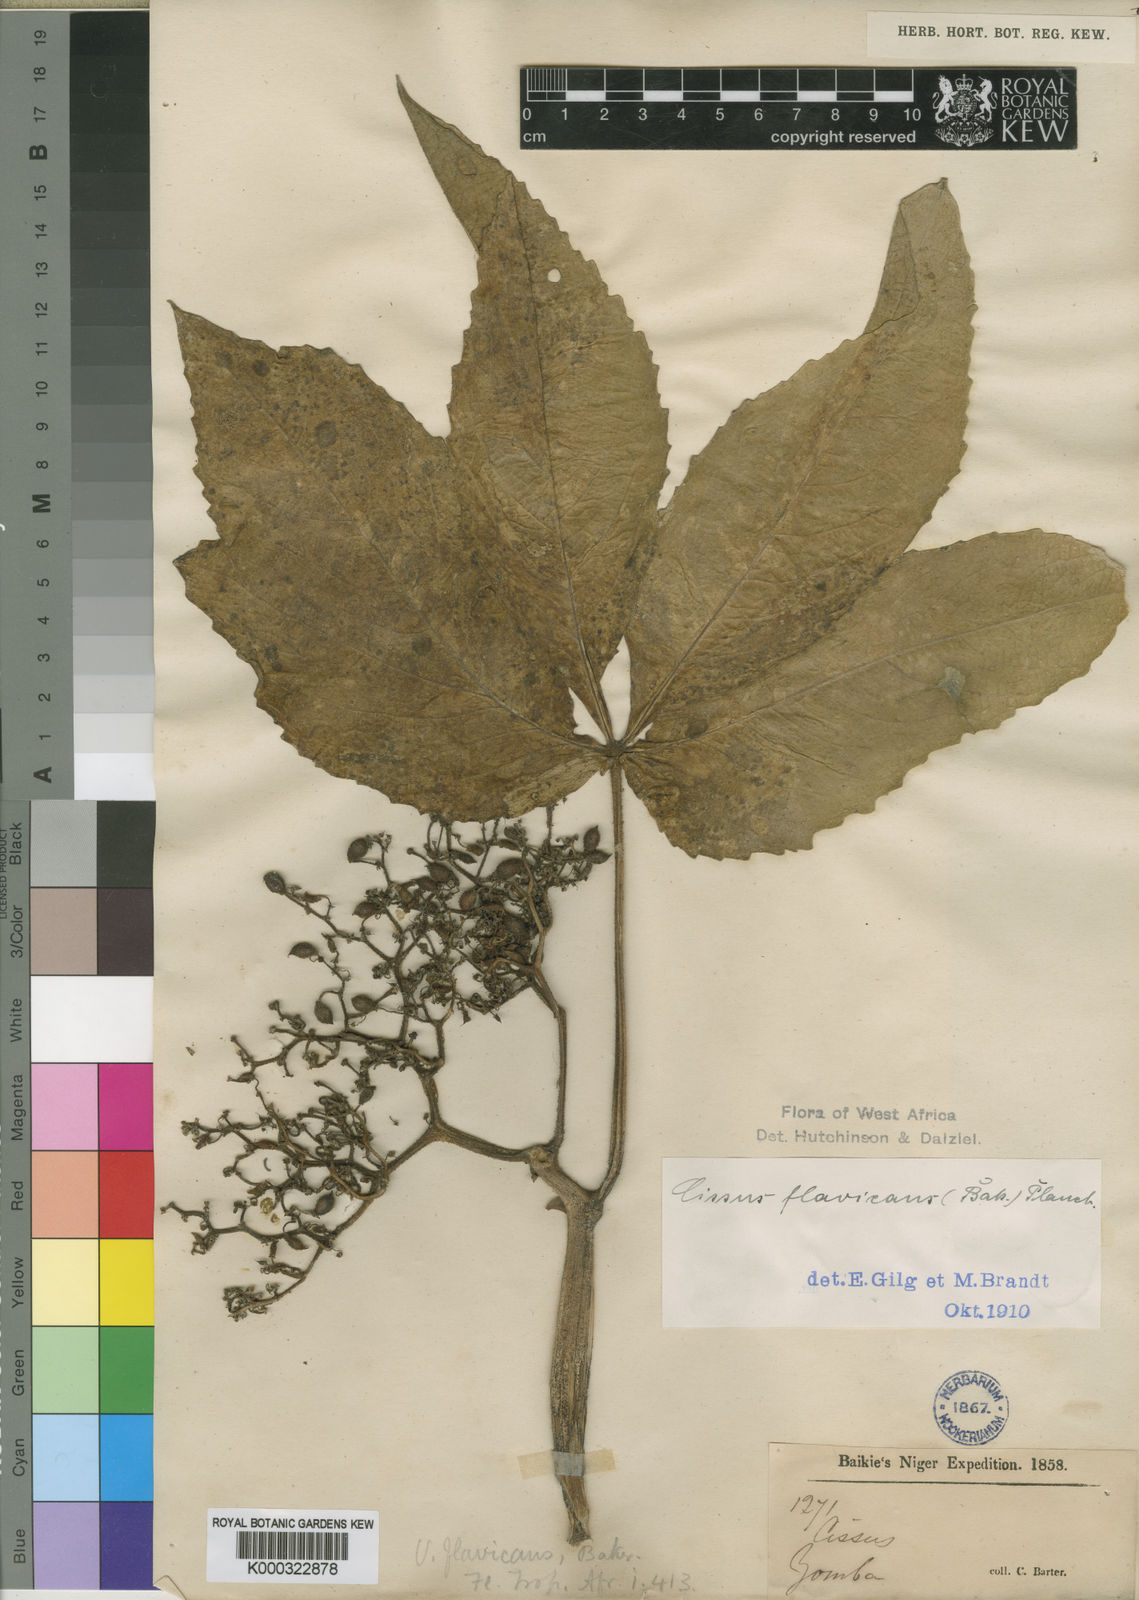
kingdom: Plantae
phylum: Tracheophyta
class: Magnoliopsida
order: Vitales
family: Vitaceae
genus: Cyphostemma
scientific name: Cyphostemma flavicans
